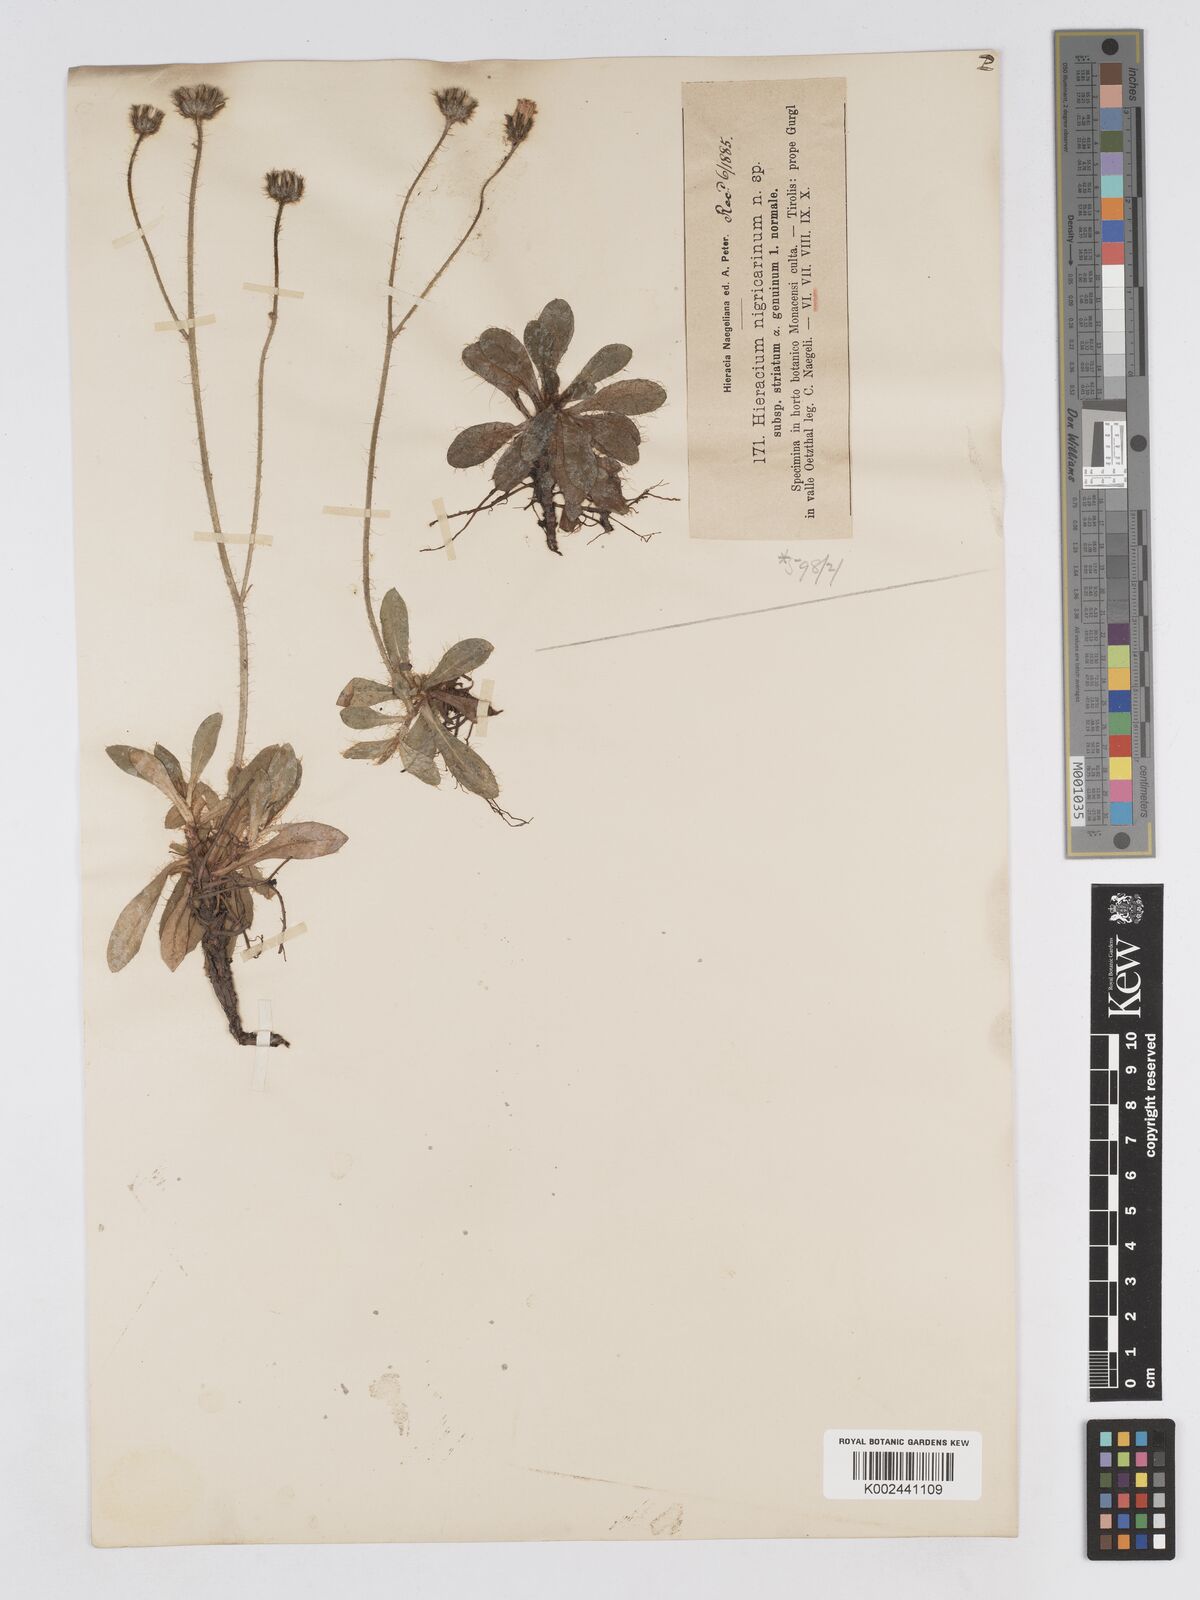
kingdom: Plantae
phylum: Tracheophyta
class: Magnoliopsida
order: Asterales
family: Asteraceae
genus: Pilosella
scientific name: Pilosella lathraea
